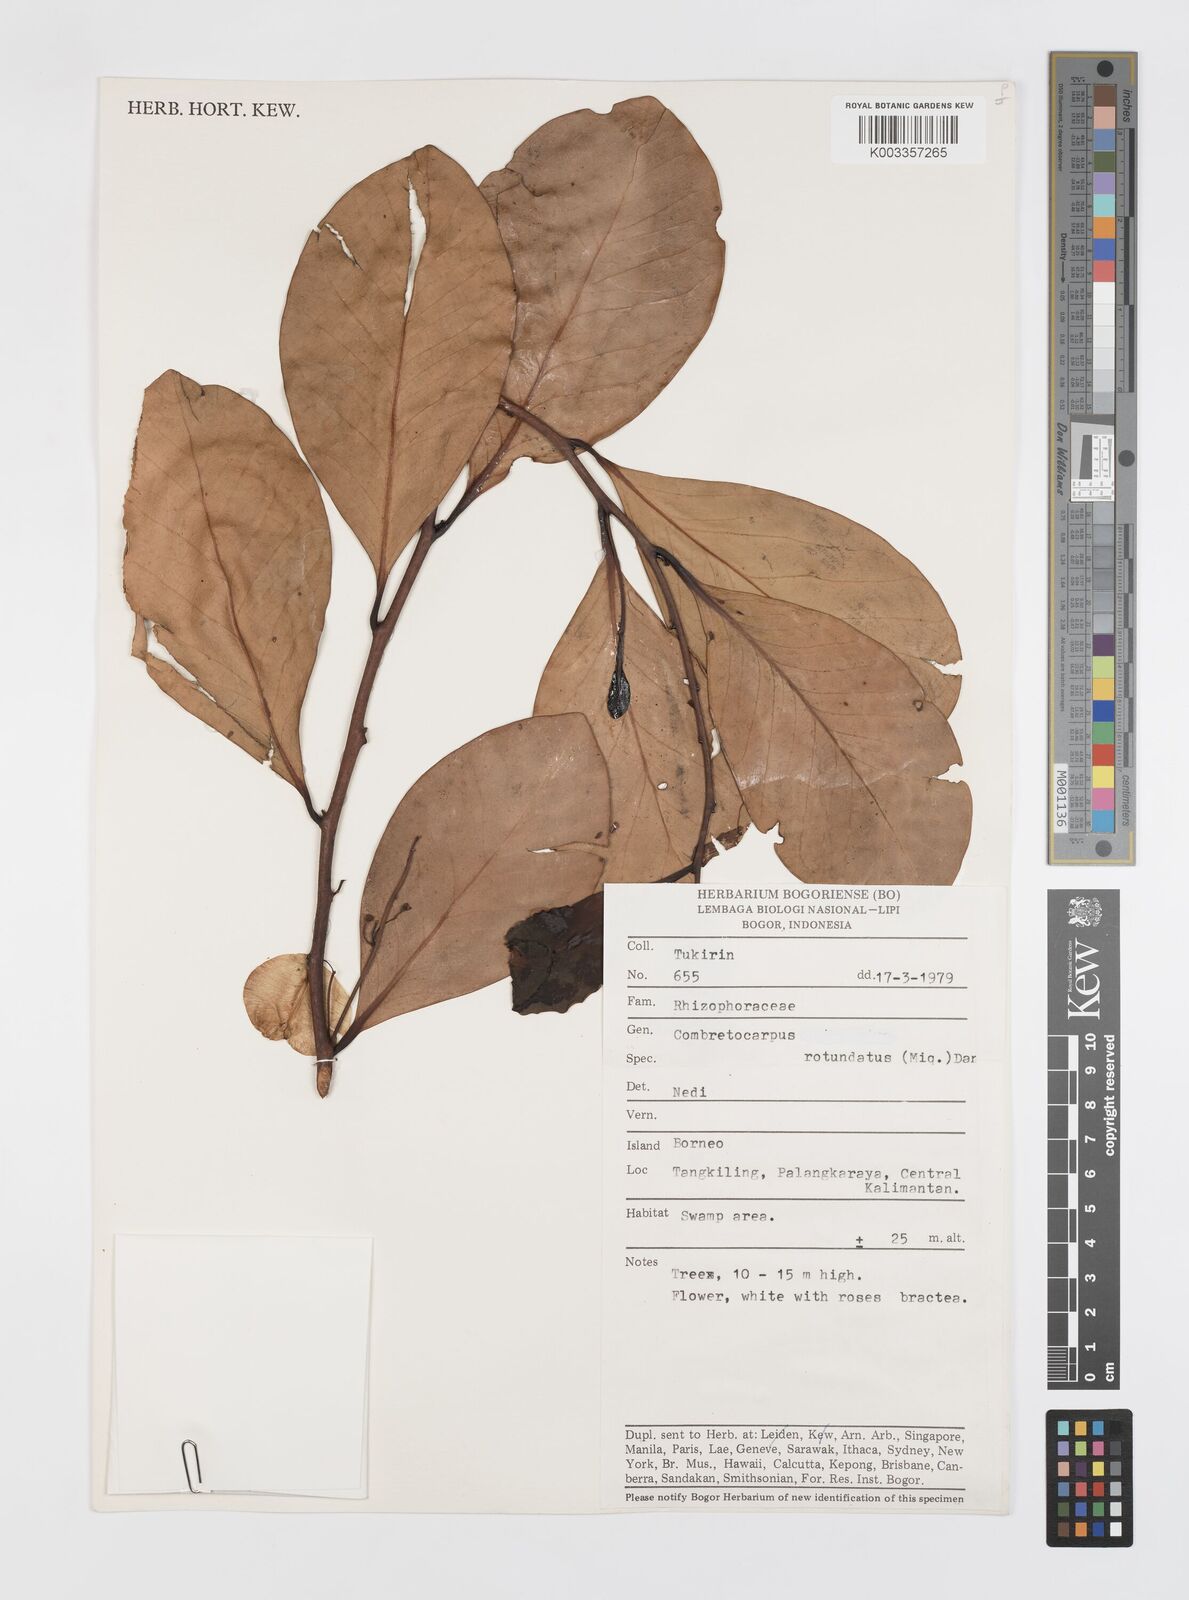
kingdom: Plantae
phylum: Tracheophyta
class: Magnoliopsida
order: Cucurbitales
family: Anisophylleaceae
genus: Combretocarpus
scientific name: Combretocarpus rotundatus
